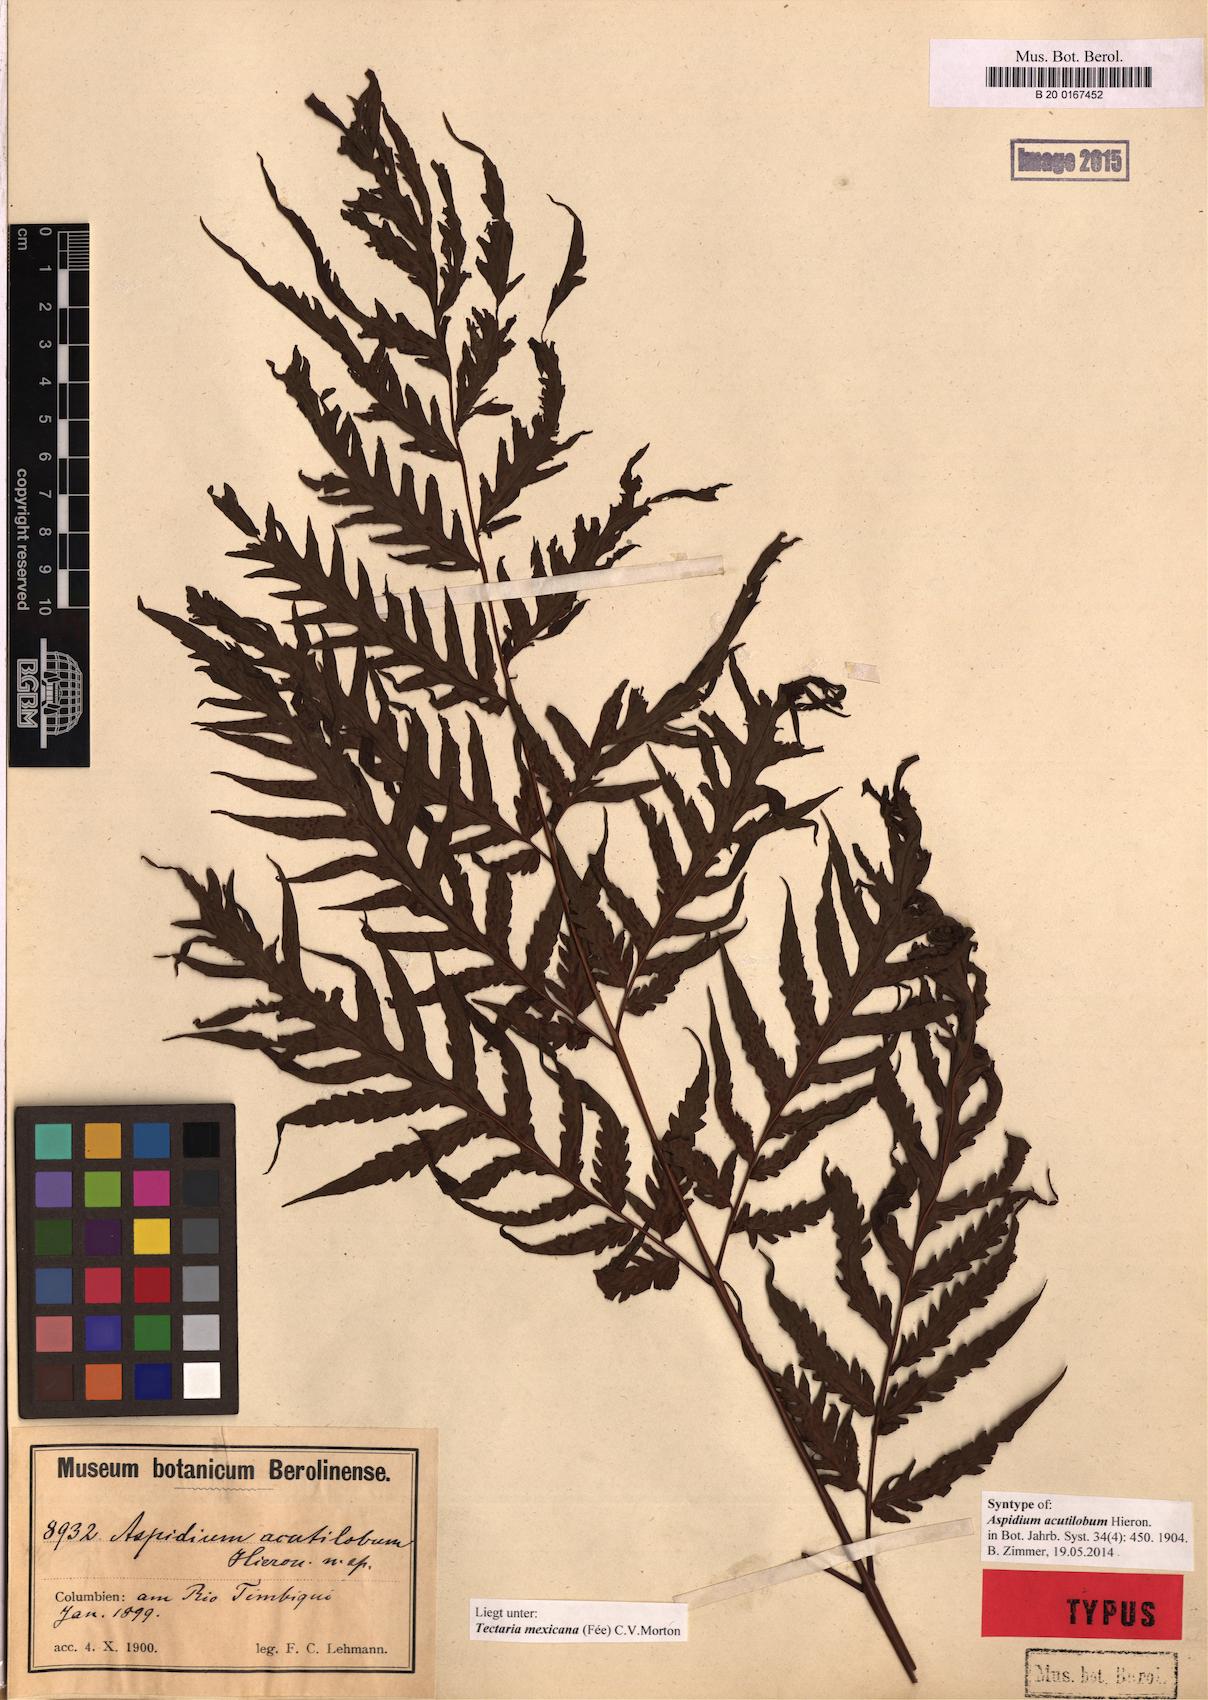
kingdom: Plantae
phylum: Tracheophyta
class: Polypodiopsida
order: Polypodiales
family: Tectariaceae
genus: Tectaria
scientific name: Tectaria mexicana
